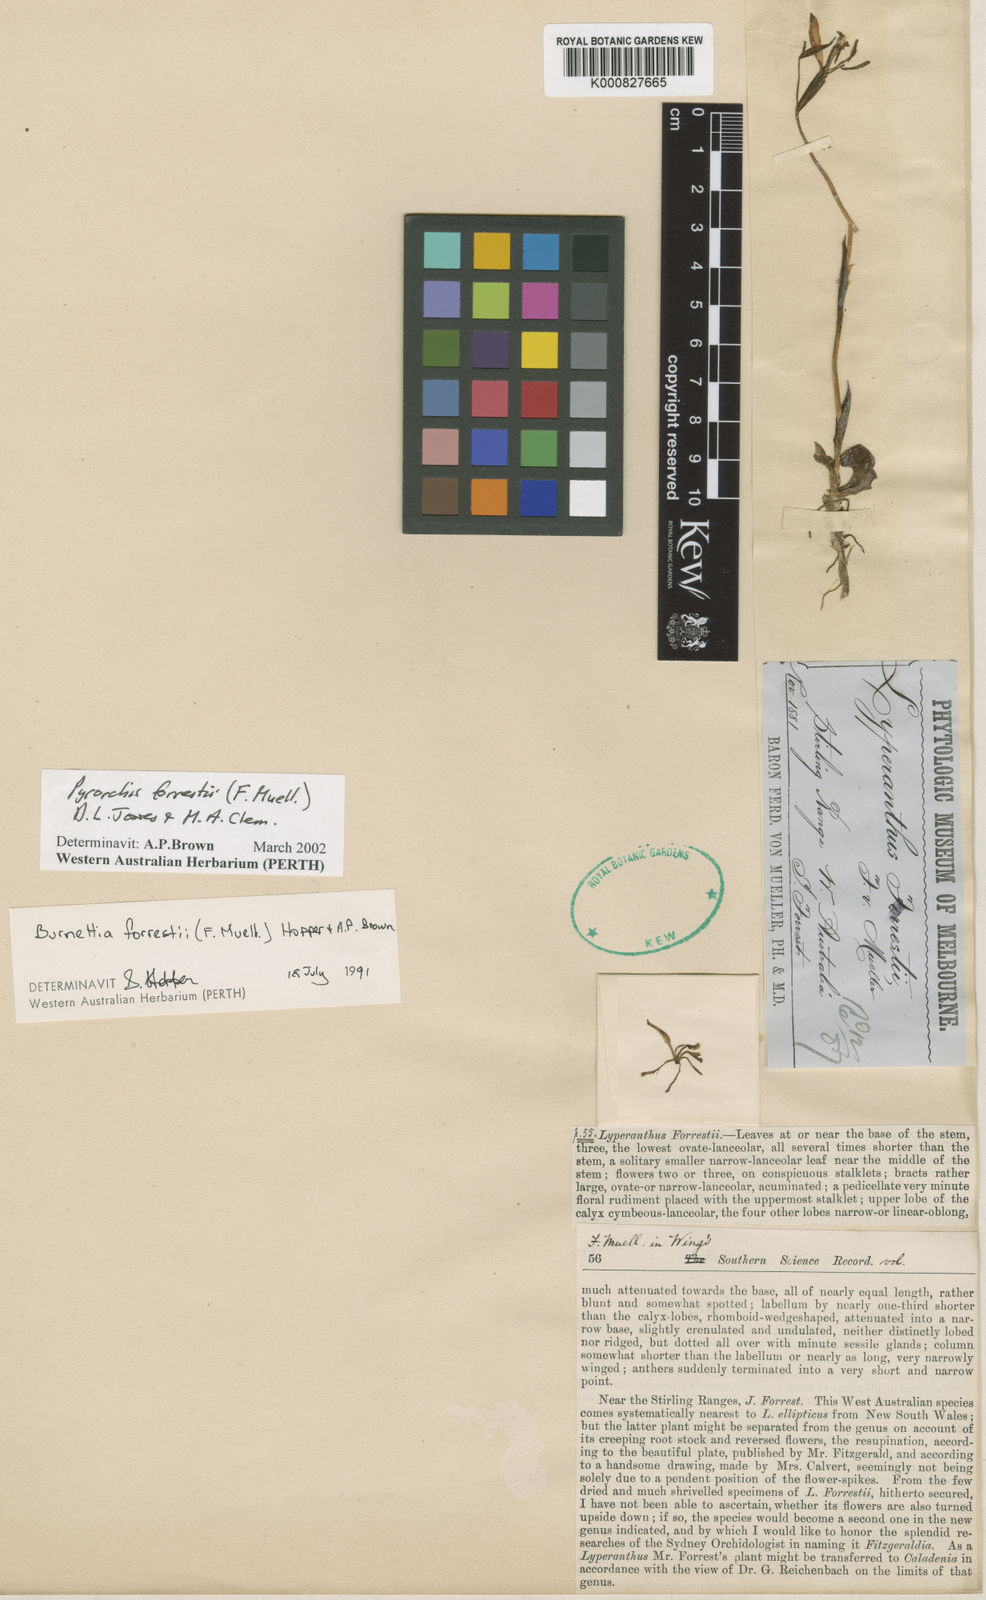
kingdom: Plantae
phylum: Tracheophyta
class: Liliopsida
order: Asparagales
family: Orchidaceae
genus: Pyrorchis
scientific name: Pyrorchis forrestii
